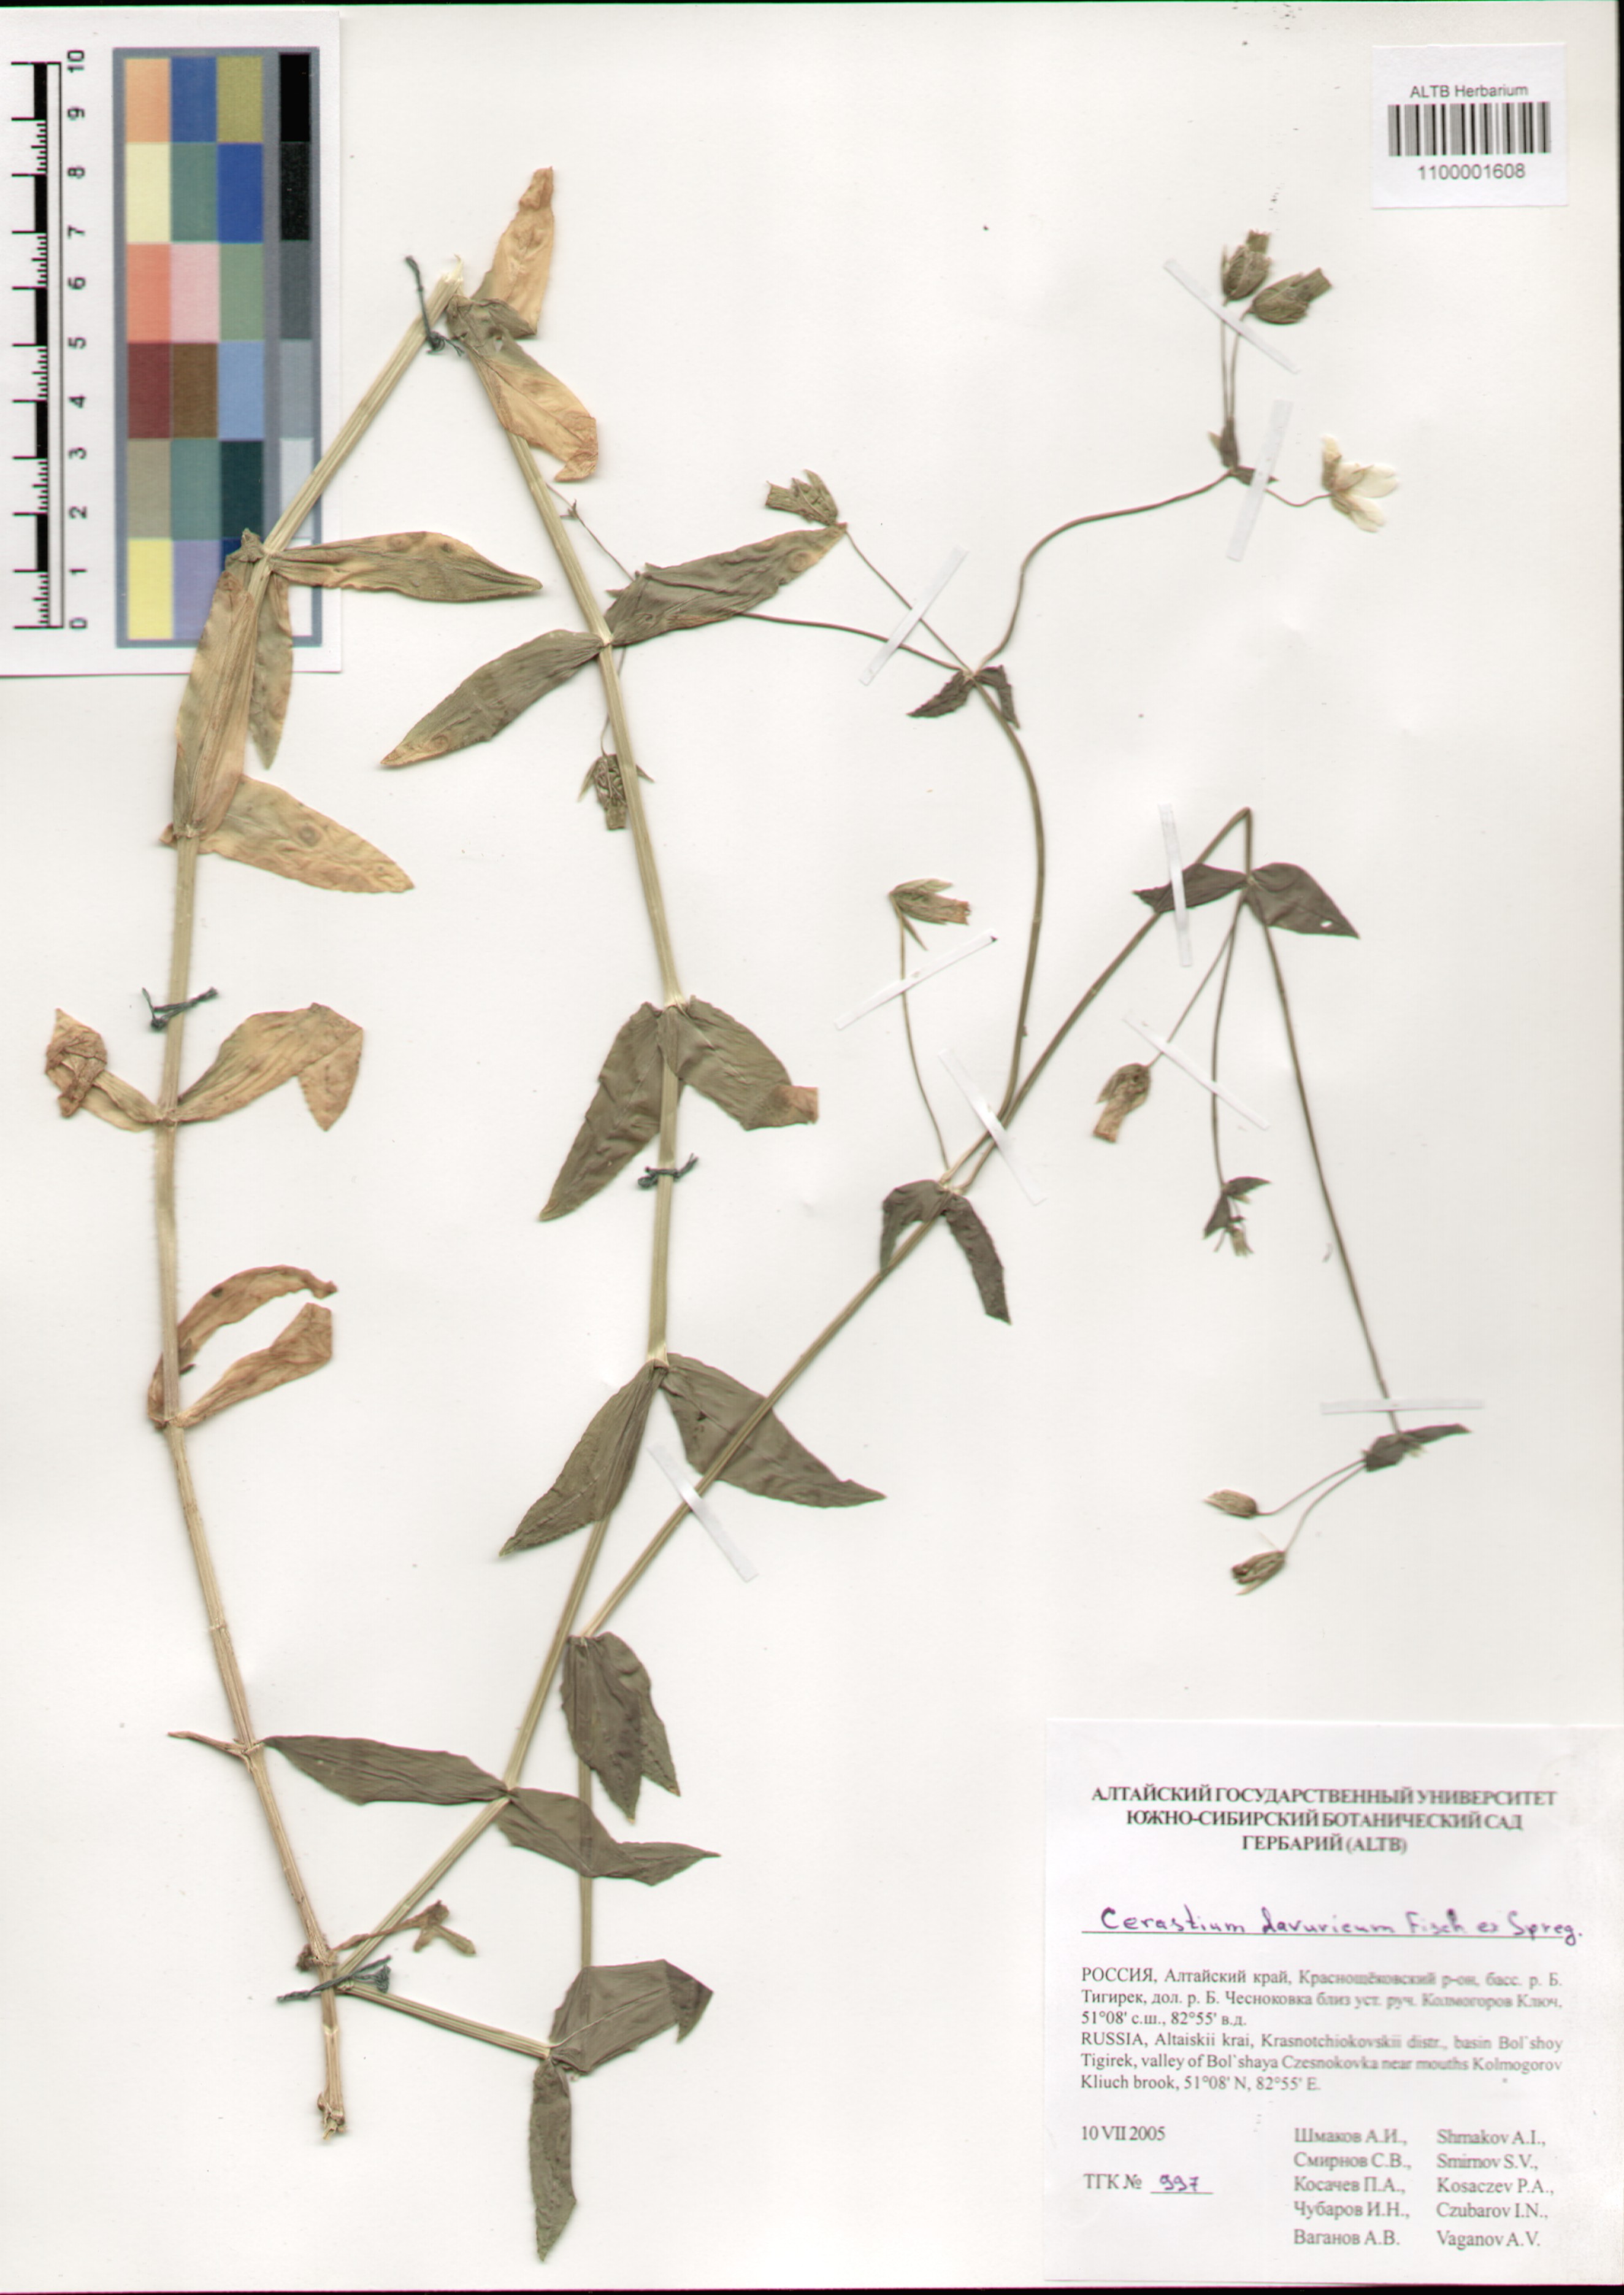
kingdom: Plantae
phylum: Tracheophyta
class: Magnoliopsida
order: Caryophyllales
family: Caryophyllaceae
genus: Dichodon
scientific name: Dichodon davuricum
